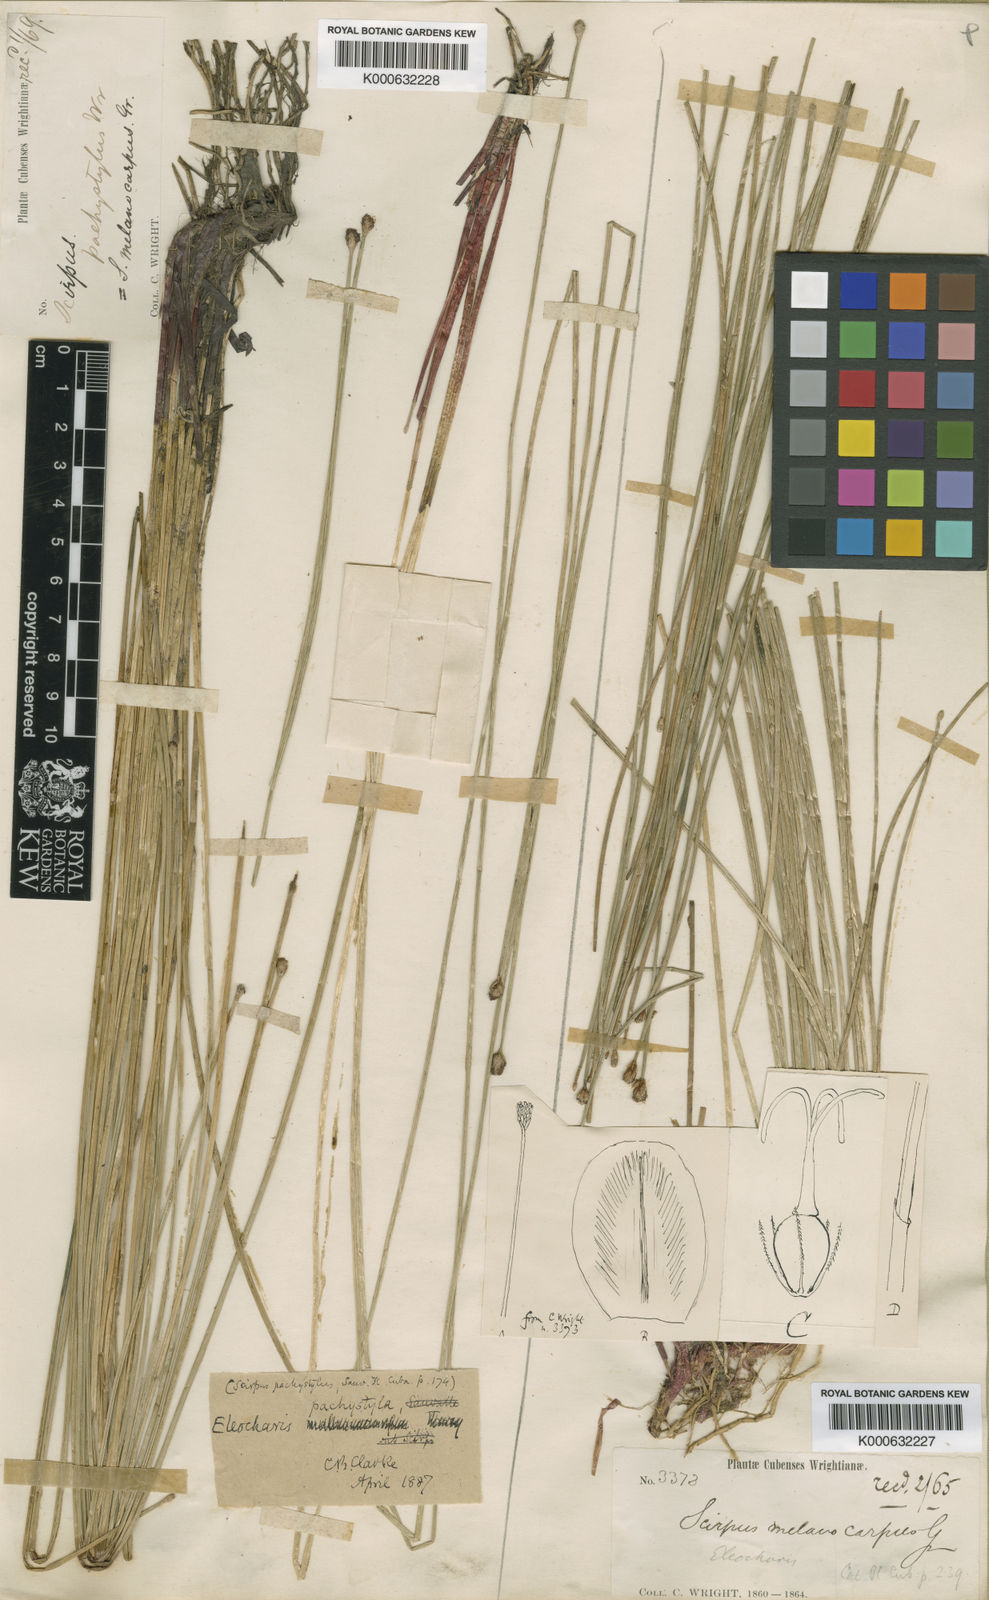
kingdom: Plantae
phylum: Tracheophyta
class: Liliopsida
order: Poales
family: Cyperaceae
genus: Eleocharis
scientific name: Eleocharis pachystyla
